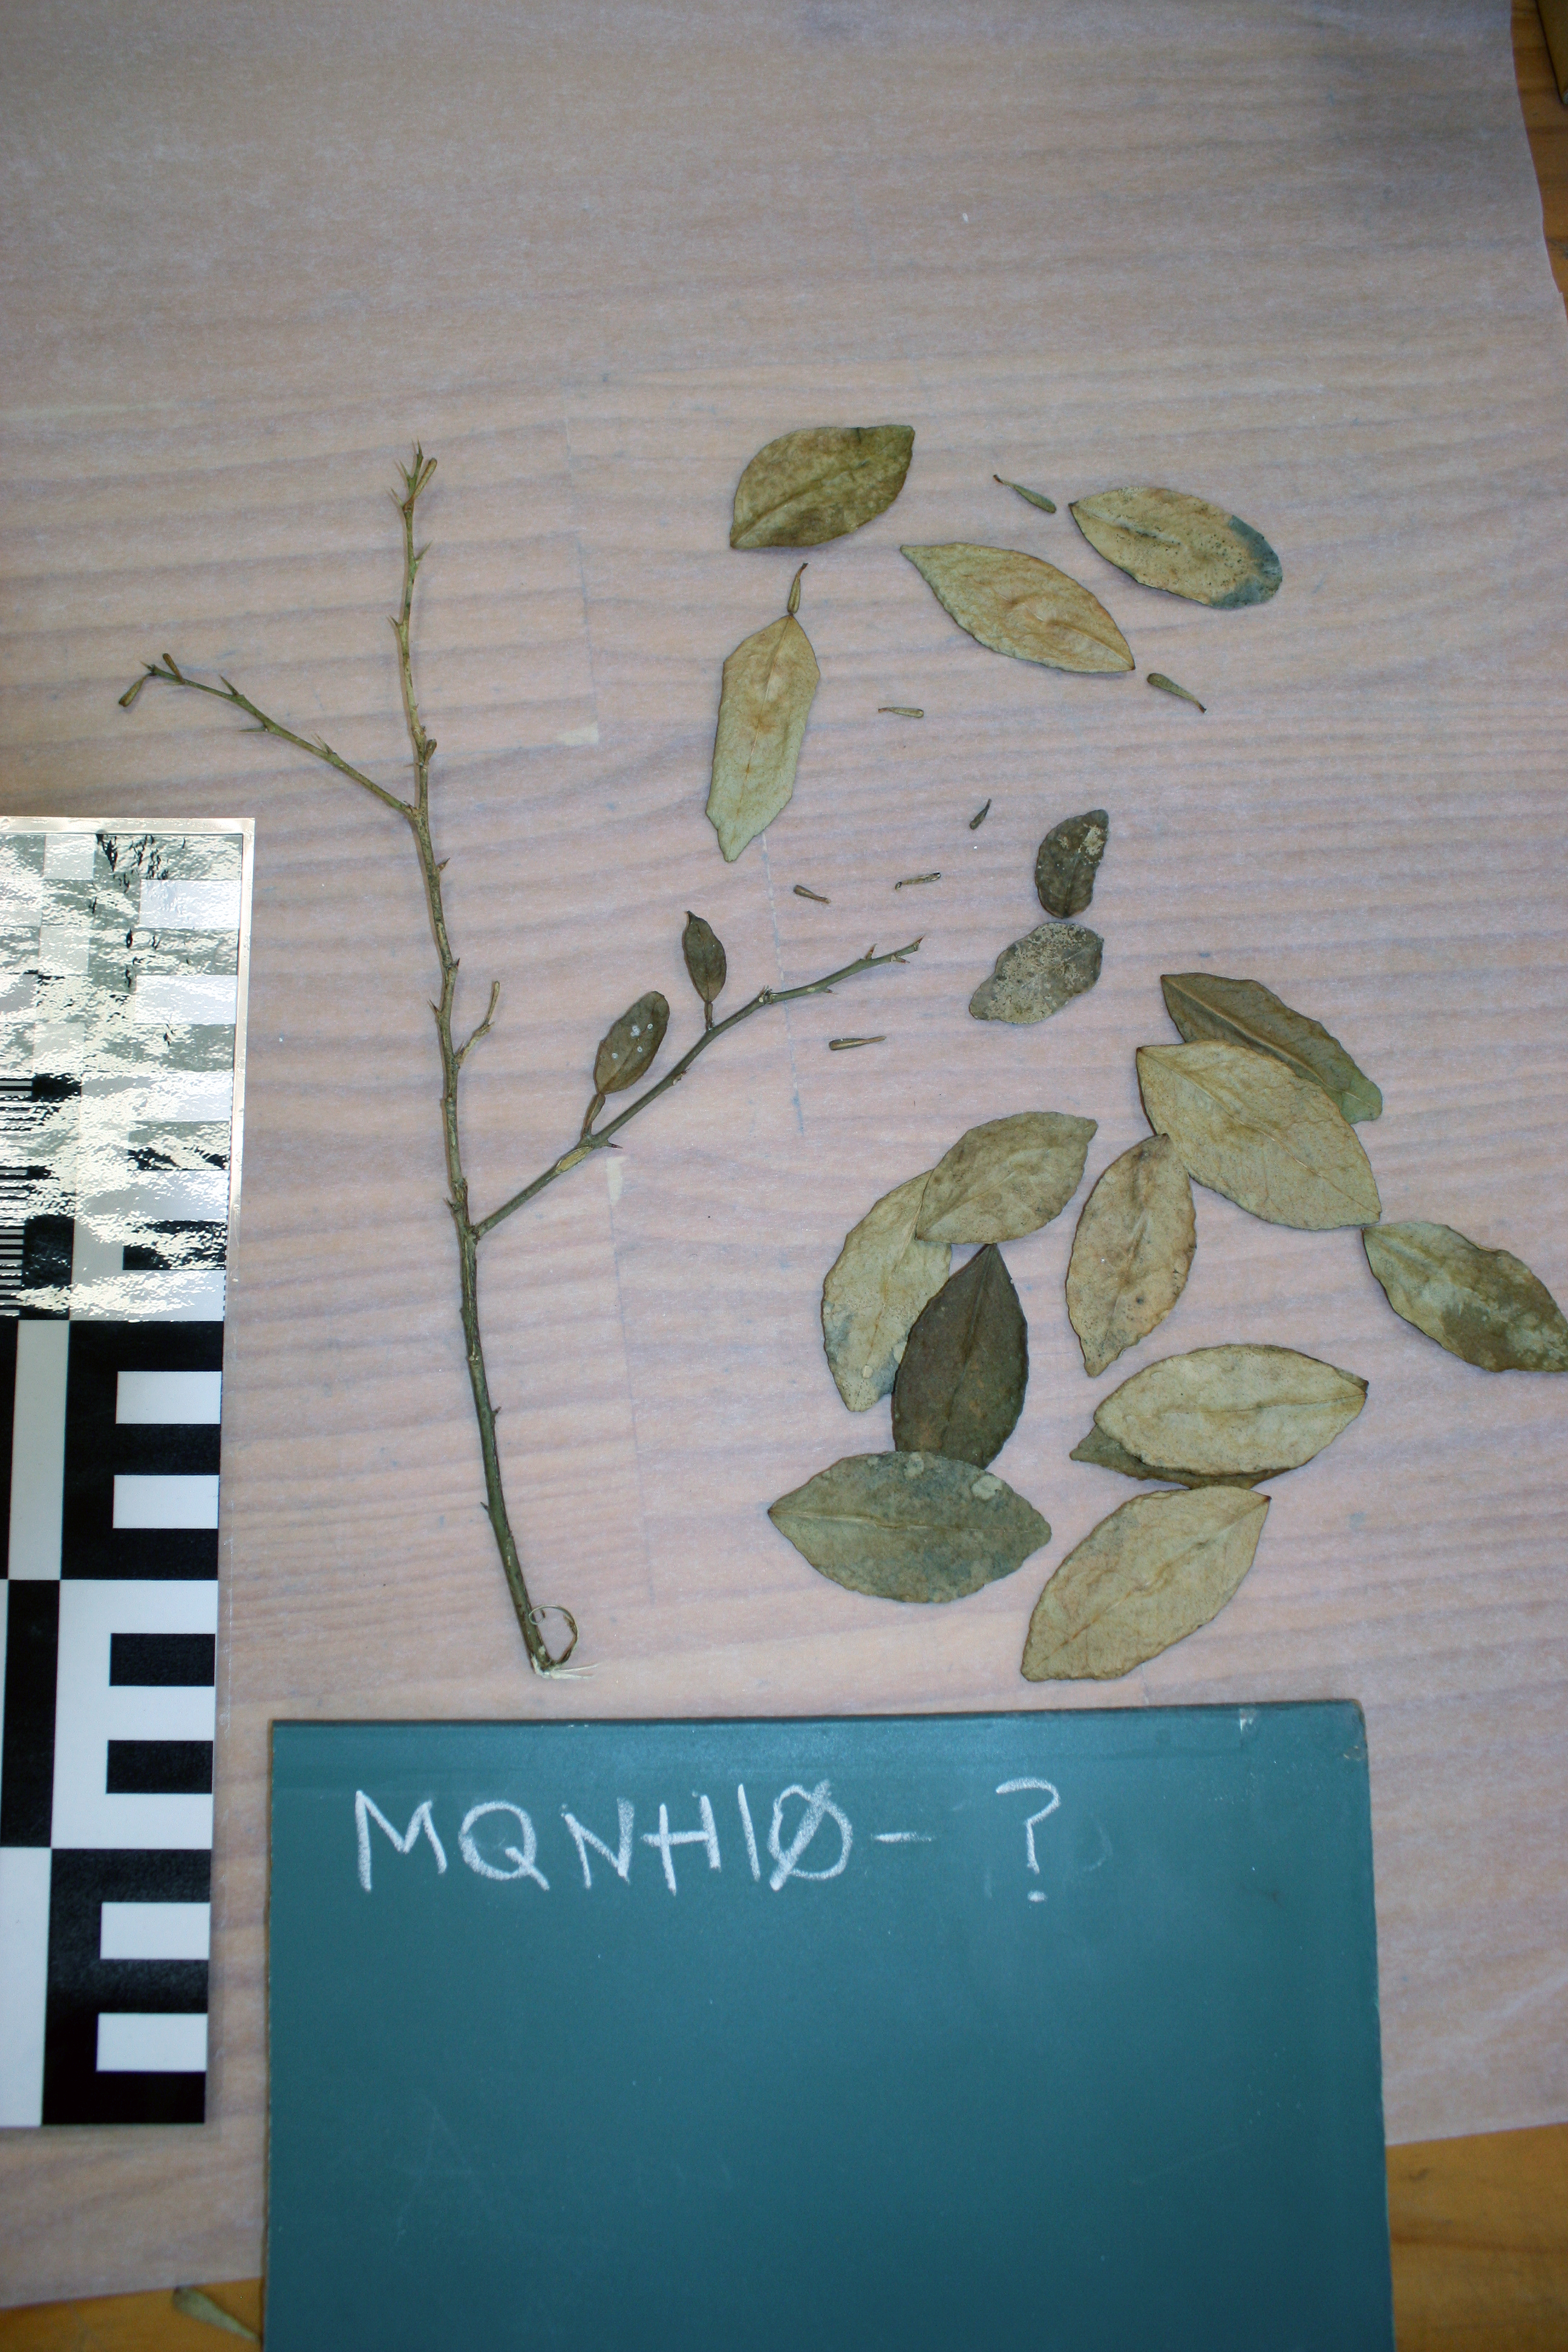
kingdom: Plantae
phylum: Tracheophyta
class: Magnoliopsida
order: Sapindales
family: Rutaceae
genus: Citrus
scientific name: Citrus
